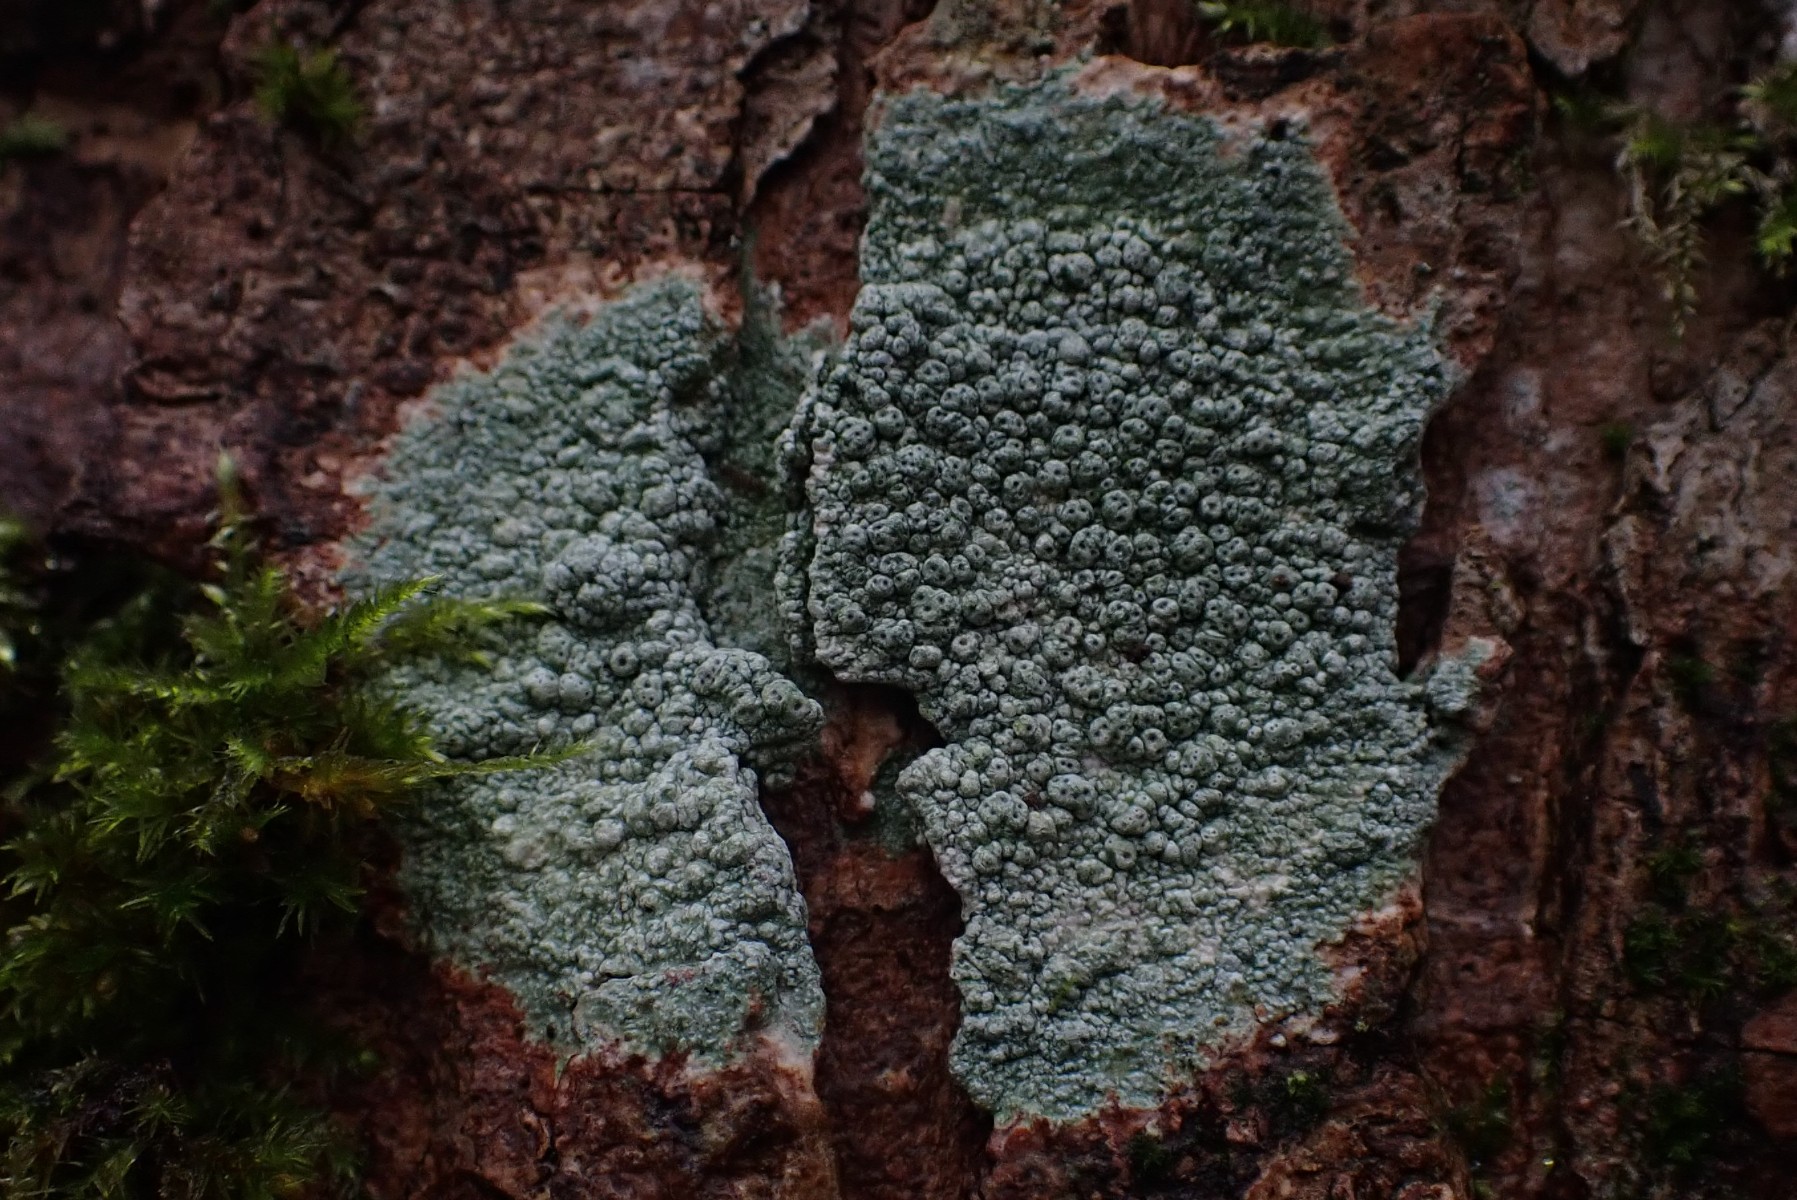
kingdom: Fungi
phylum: Ascomycota
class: Lecanoromycetes
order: Pertusariales
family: Pertusariaceae
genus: Pertusaria
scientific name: Pertusaria pertusa
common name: almindelig prikvortelav
